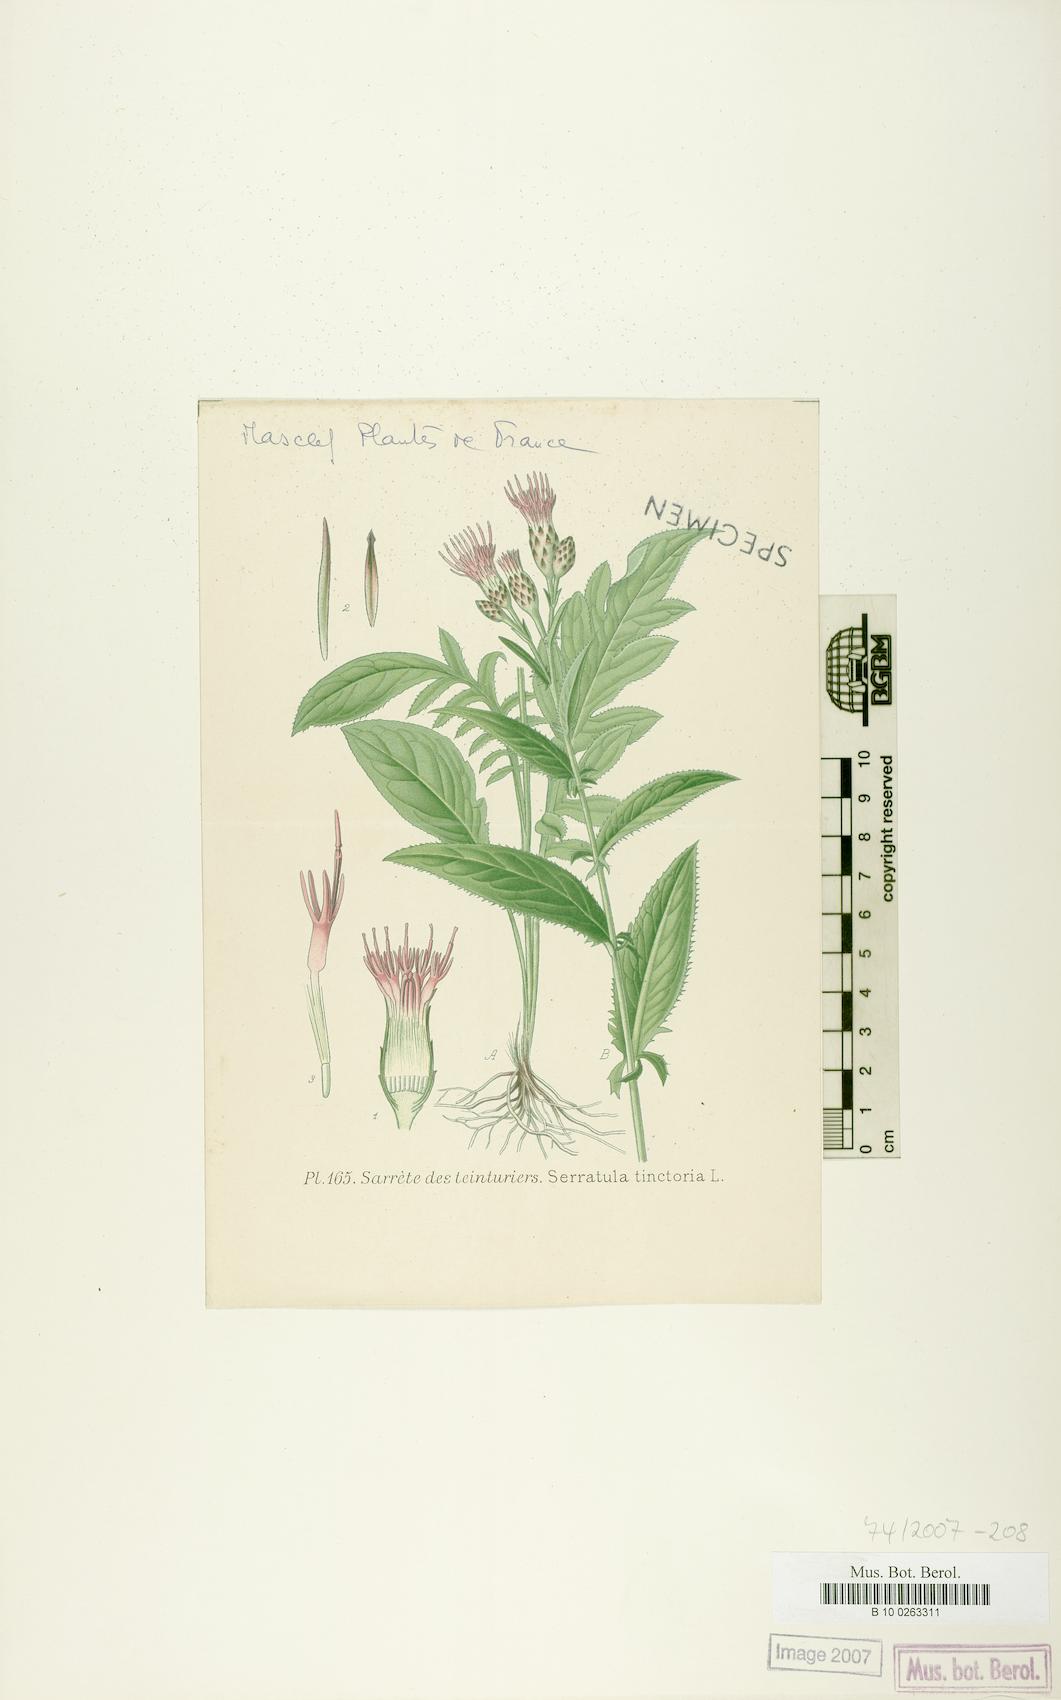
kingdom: Plantae
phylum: Tracheophyta
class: Magnoliopsida
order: Asterales
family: Asteraceae
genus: Serratula
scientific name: Serratula tinctoria
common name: Saw-wort
